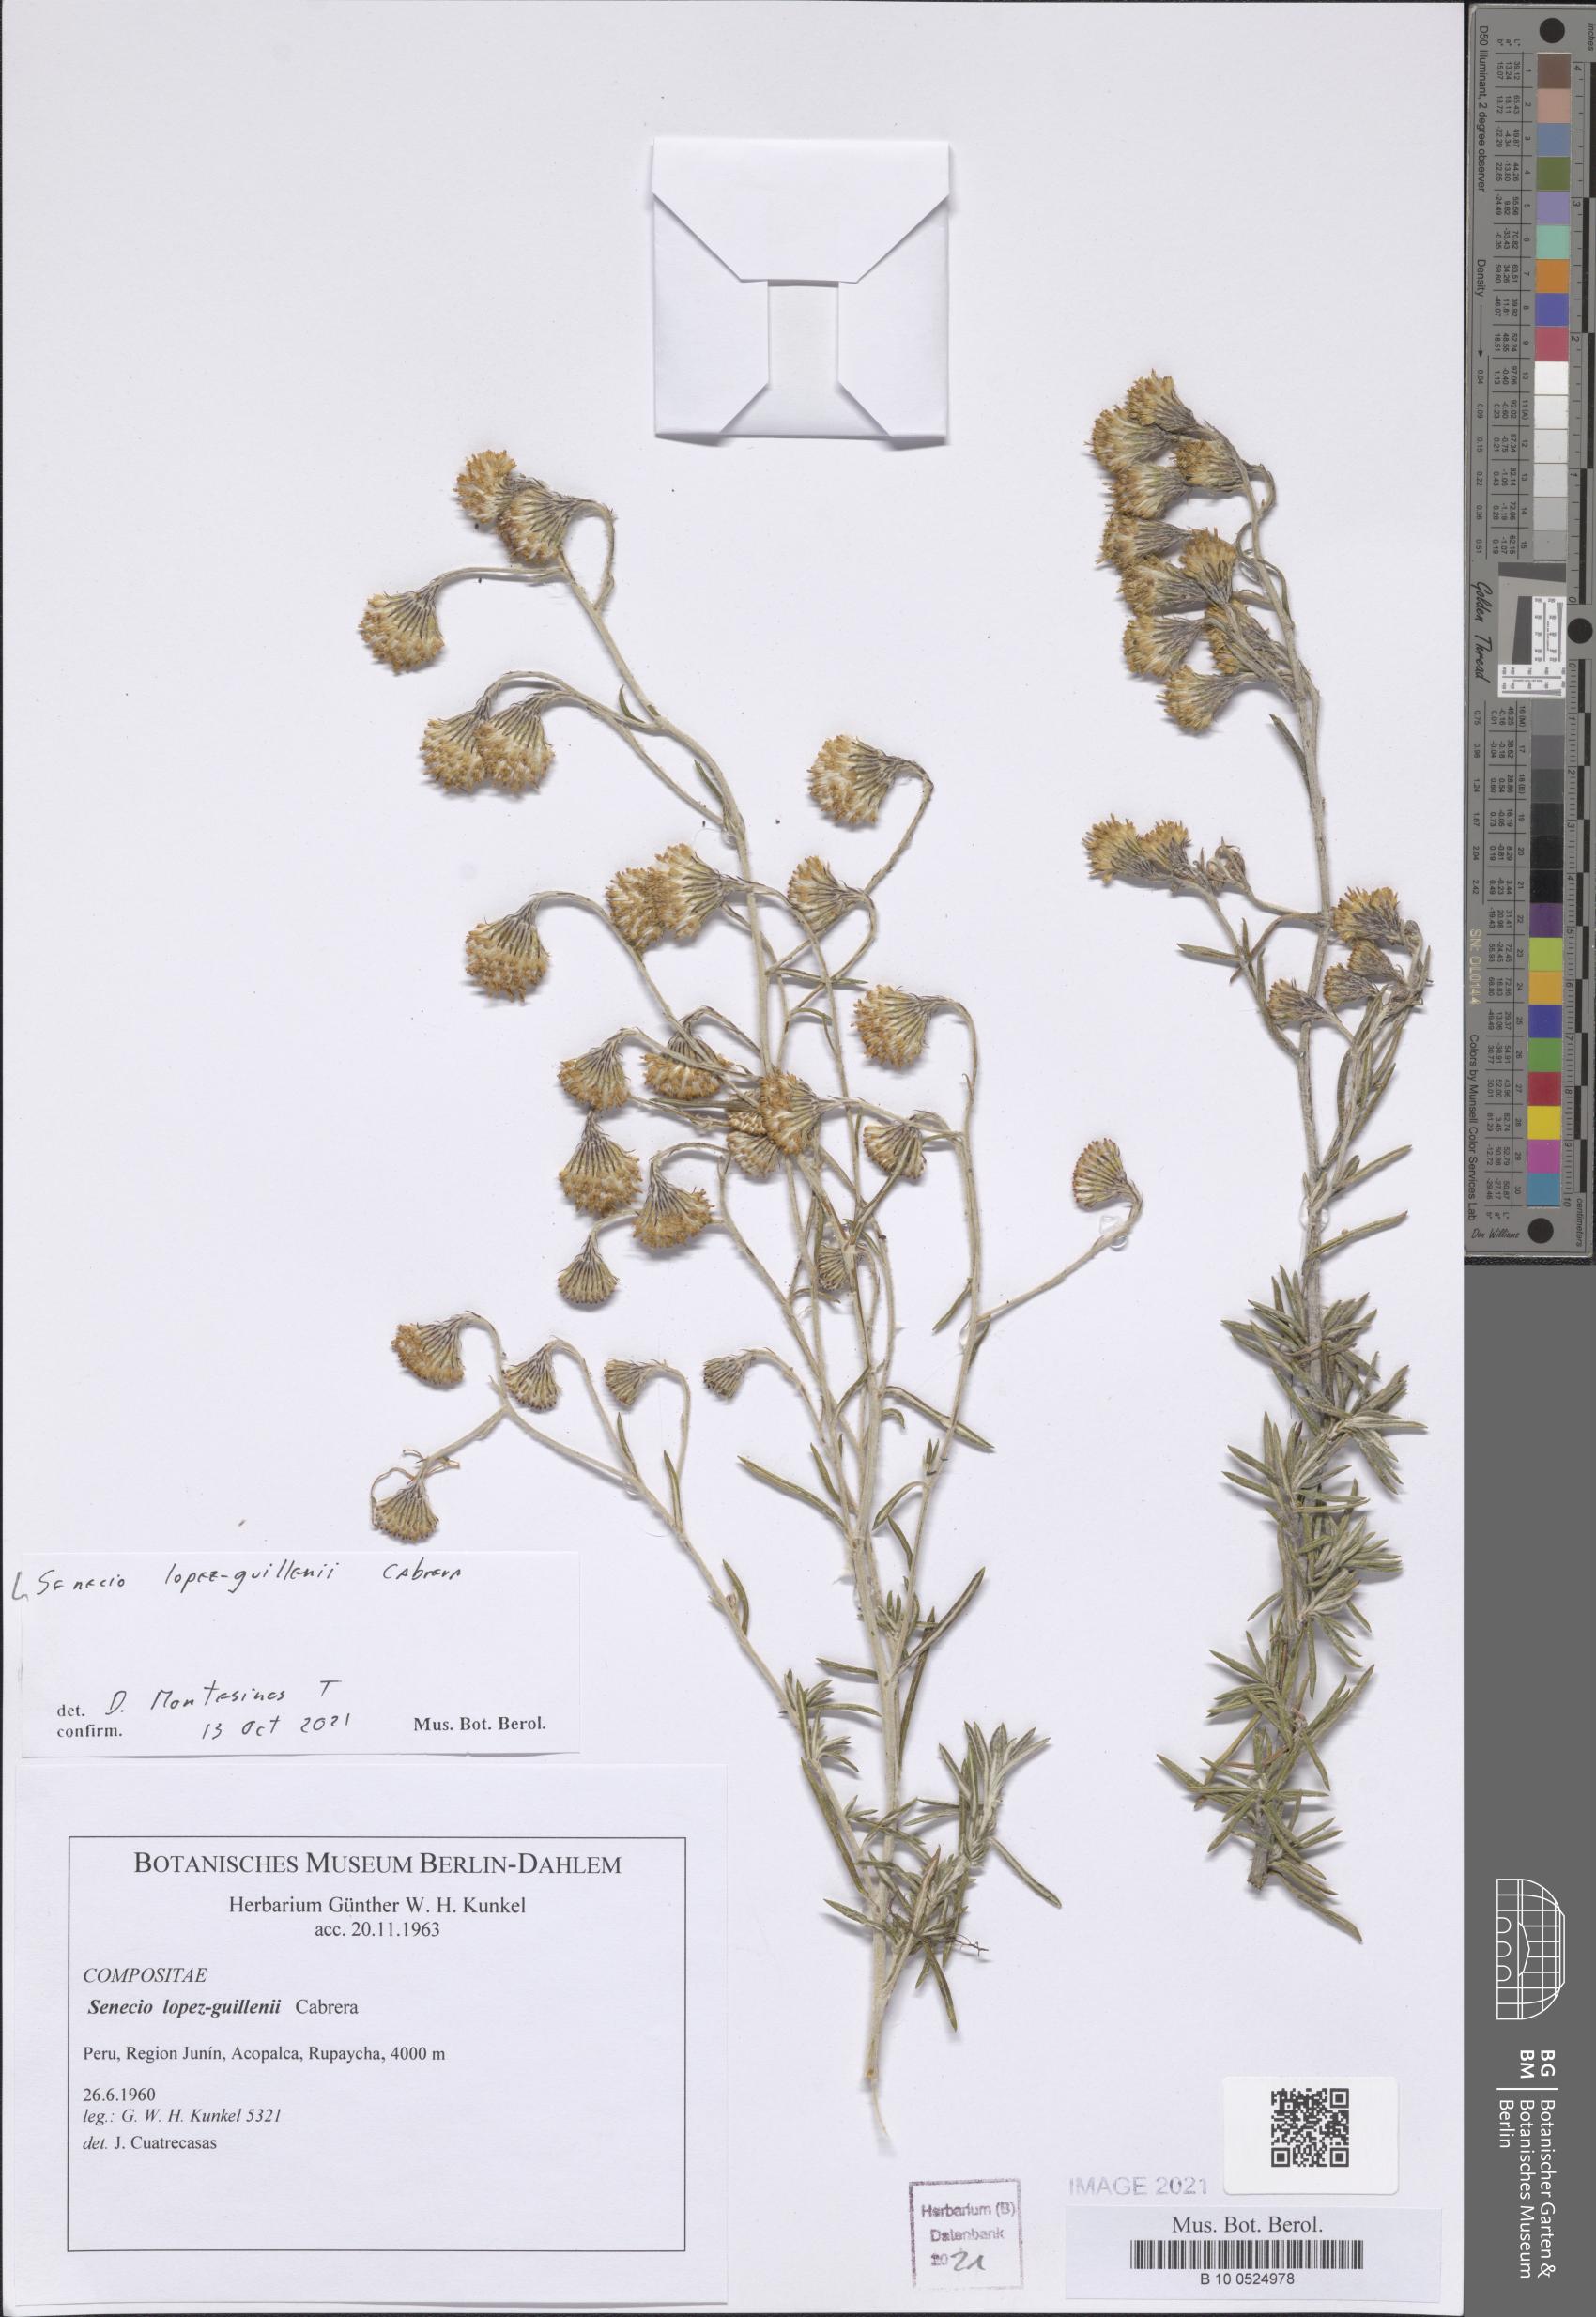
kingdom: Plantae
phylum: Tracheophyta
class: Magnoliopsida
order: Asterales
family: Asteraceae
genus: Senecio
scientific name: Senecio lopez-guillenii
